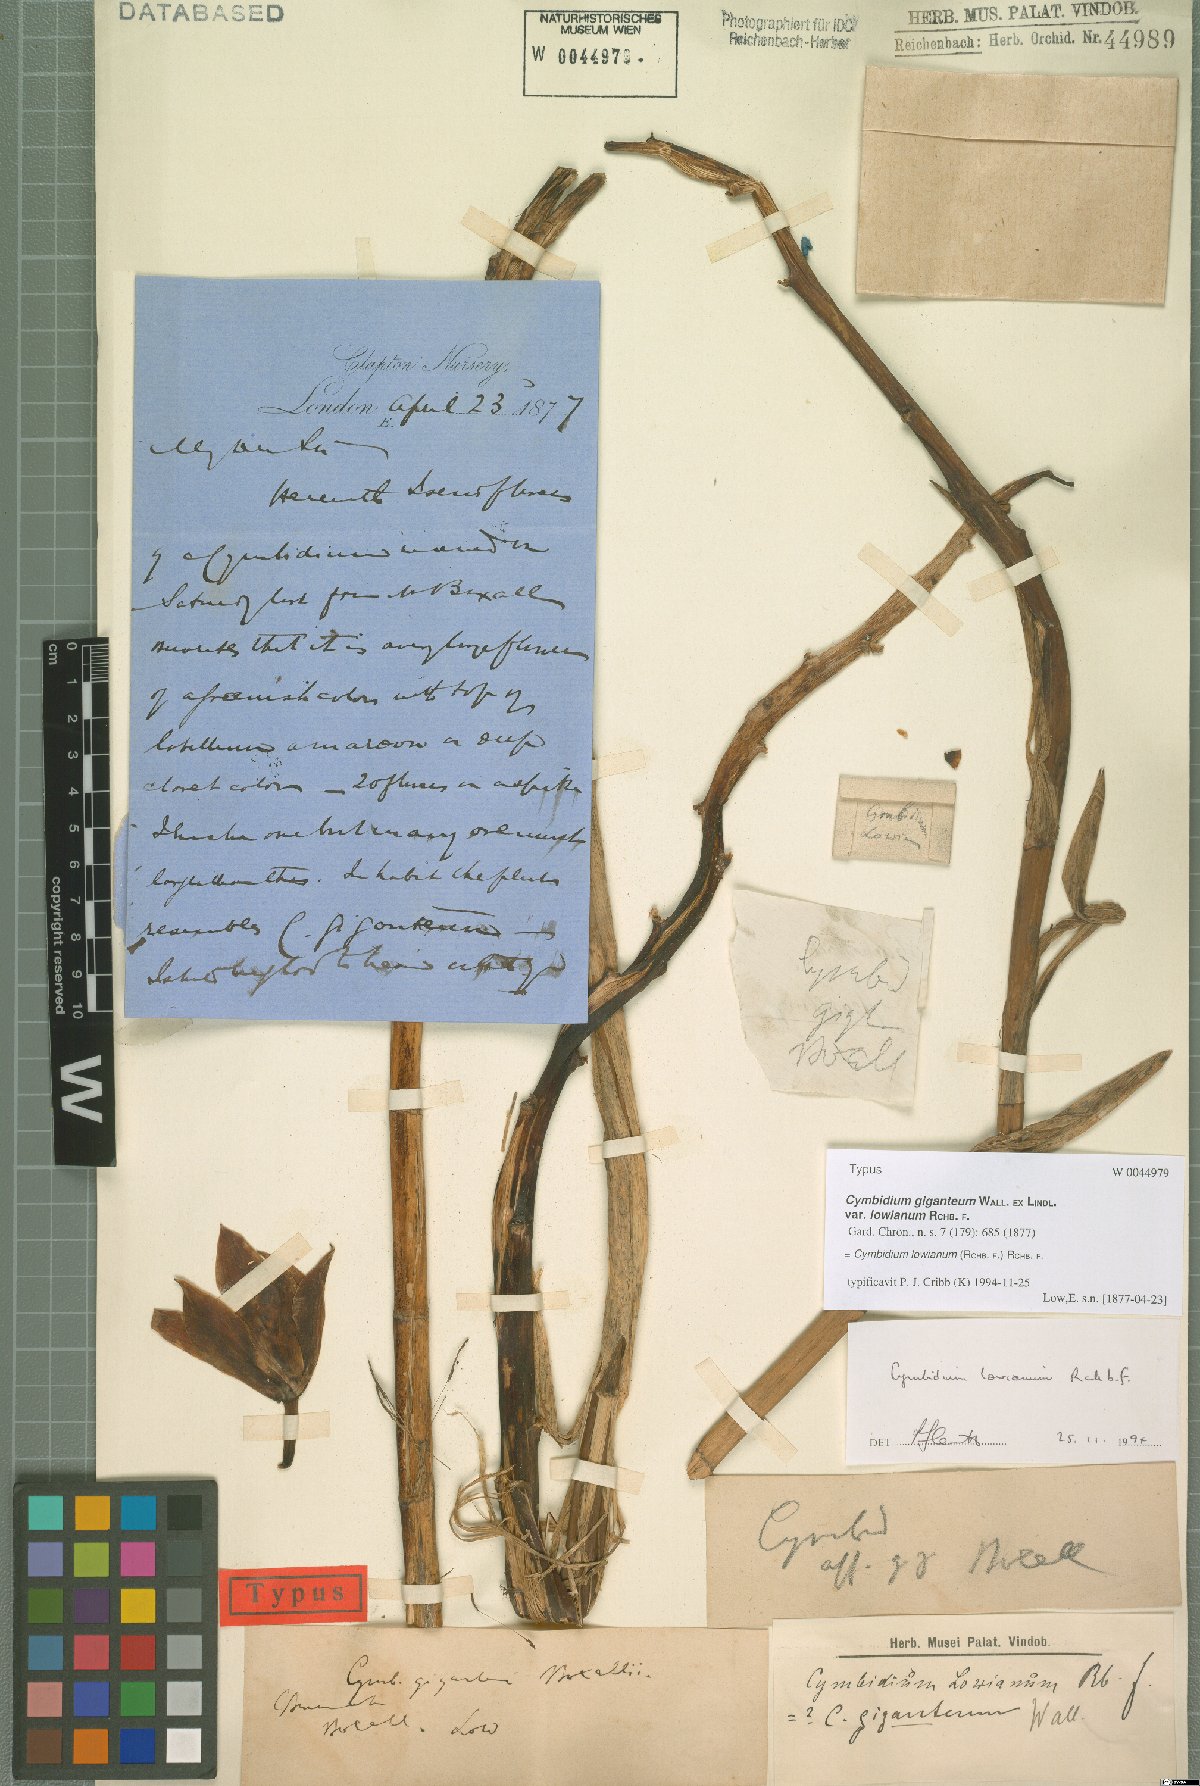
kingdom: Plantae
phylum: Tracheophyta
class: Liliopsida
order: Asparagales
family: Orchidaceae
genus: Cymbidium
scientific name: Cymbidium lowianum
